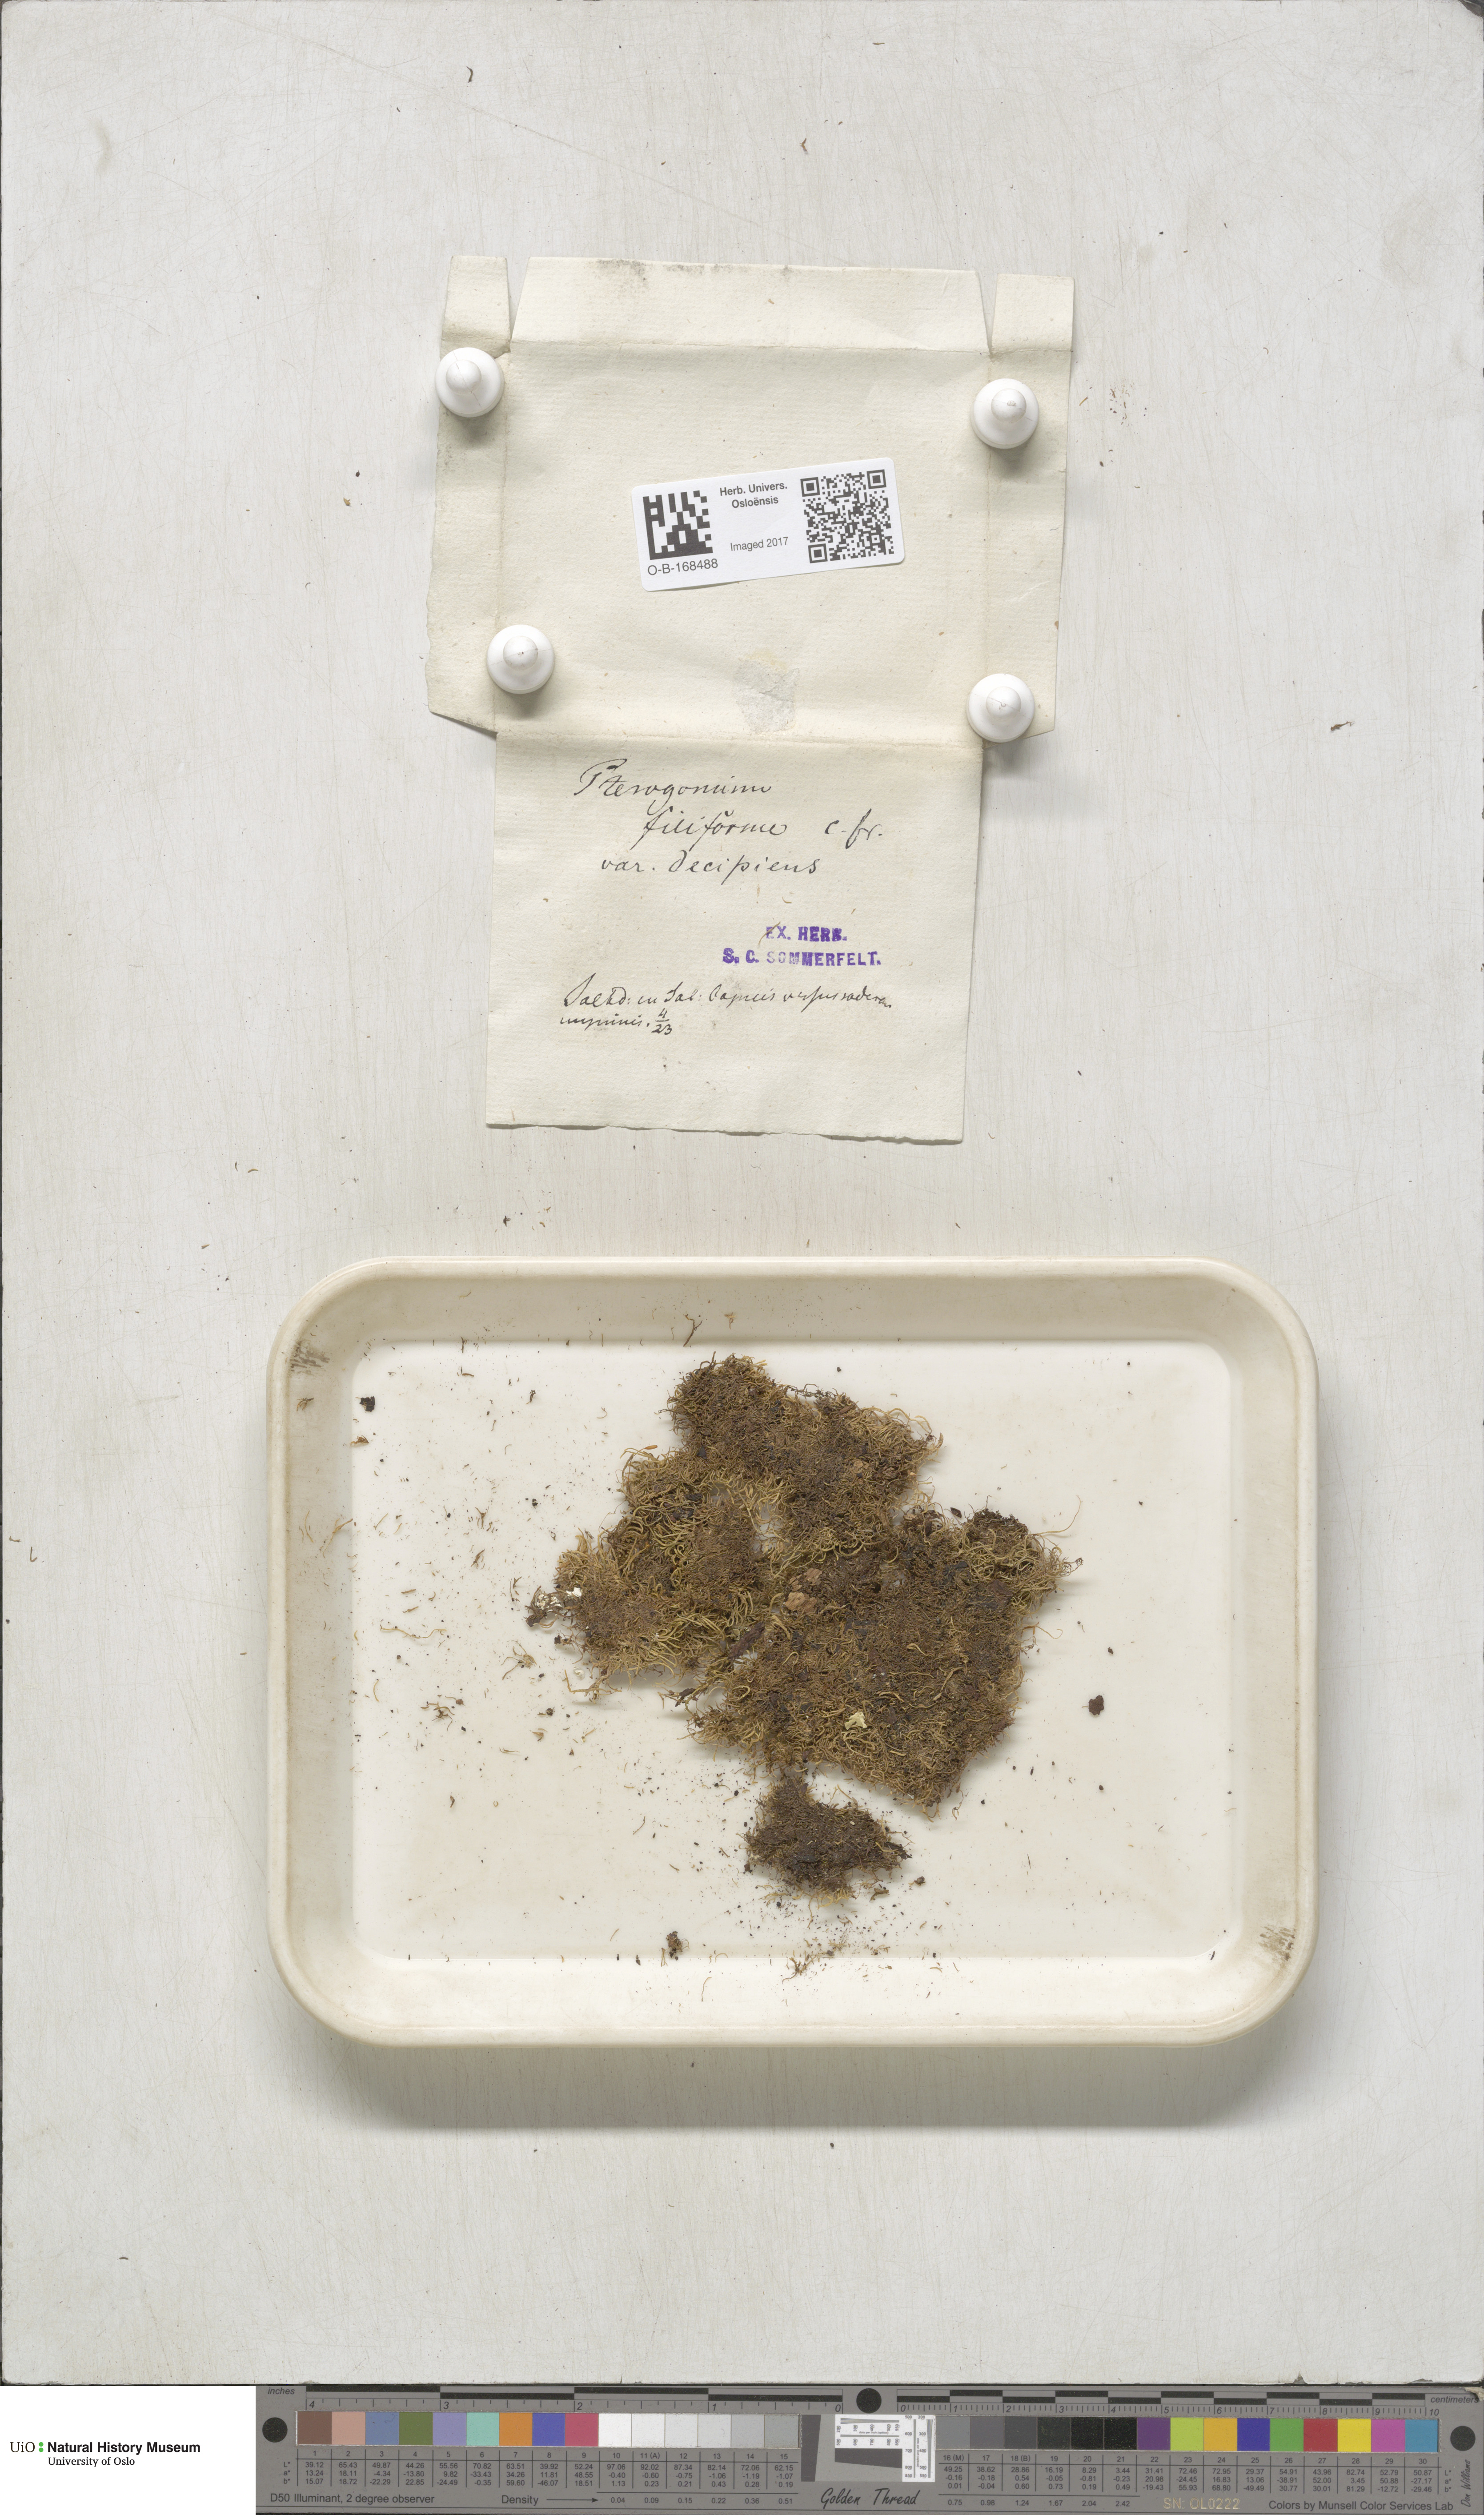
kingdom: Plantae
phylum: Bryophyta
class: Bryopsida
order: Hypnales
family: Pterigynandraceae
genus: Pterigynandrum
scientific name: Pterigynandrum filiforme
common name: Capillary wing moss
